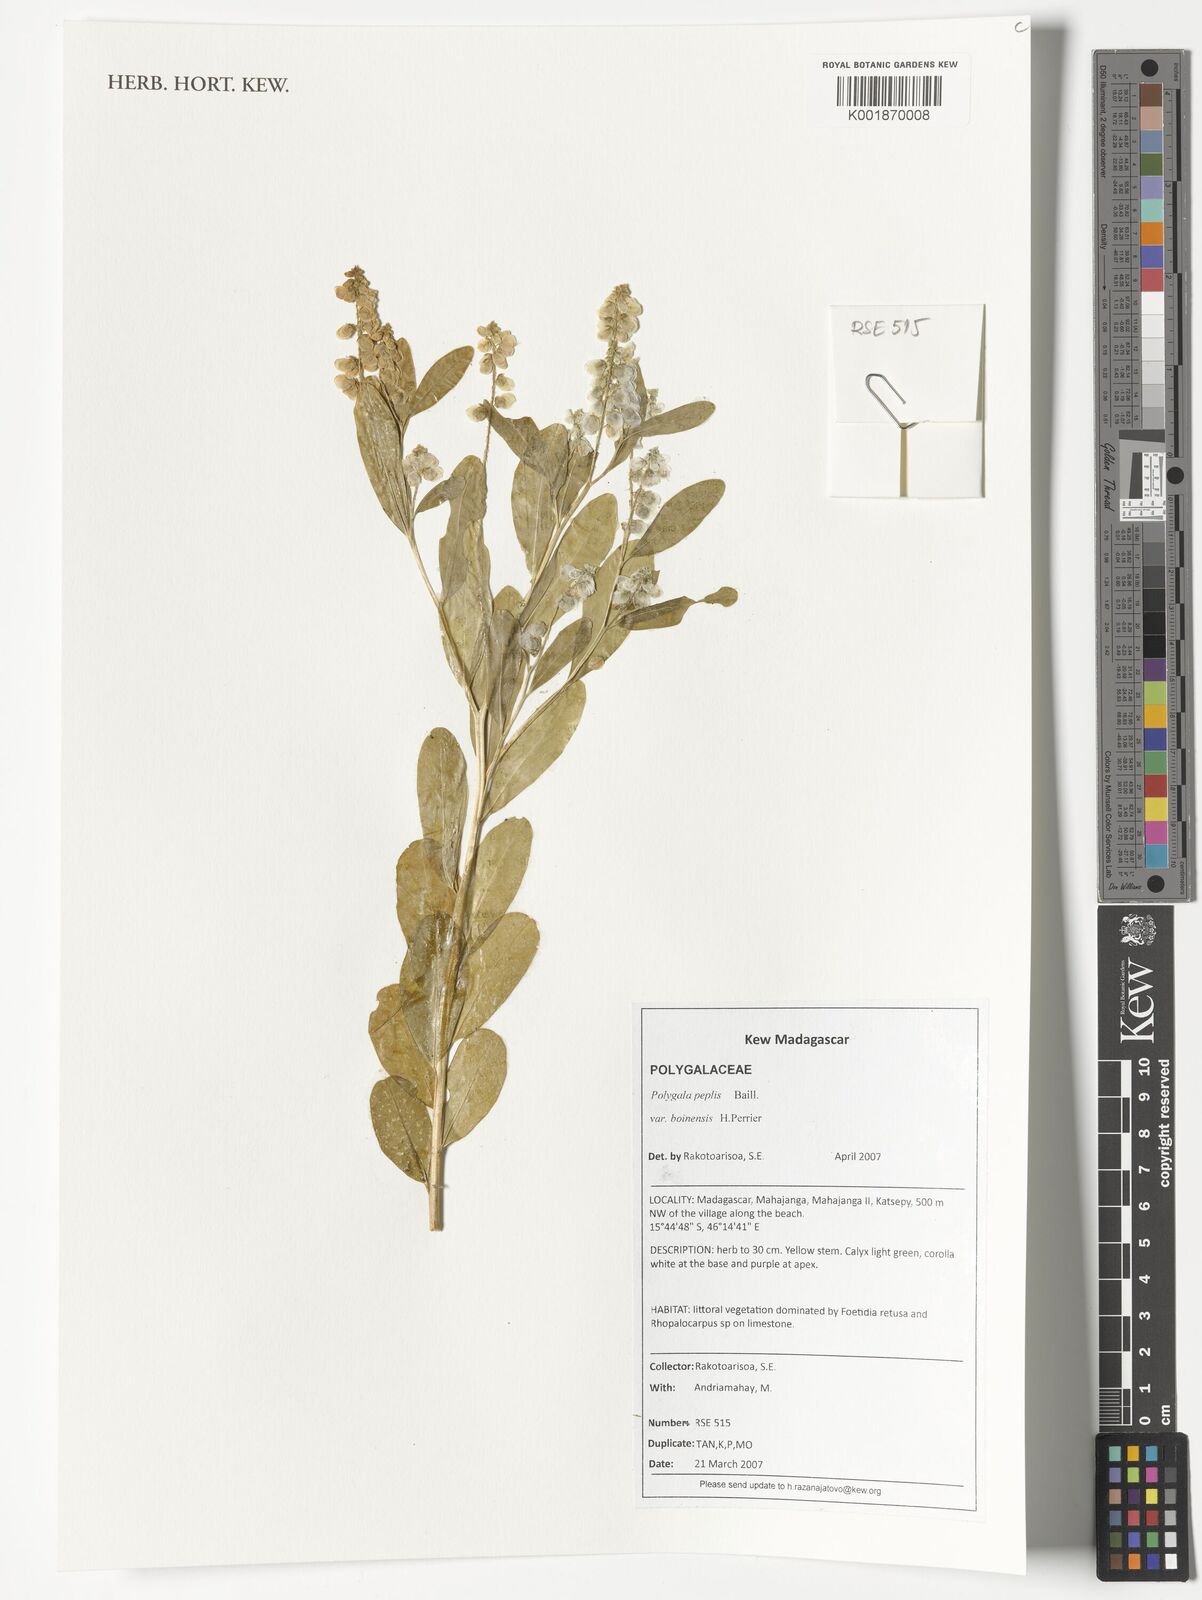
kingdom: Plantae
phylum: Tracheophyta
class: Magnoliopsida
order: Fabales
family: Polygalaceae
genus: Polygala
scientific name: Polygala peplis
